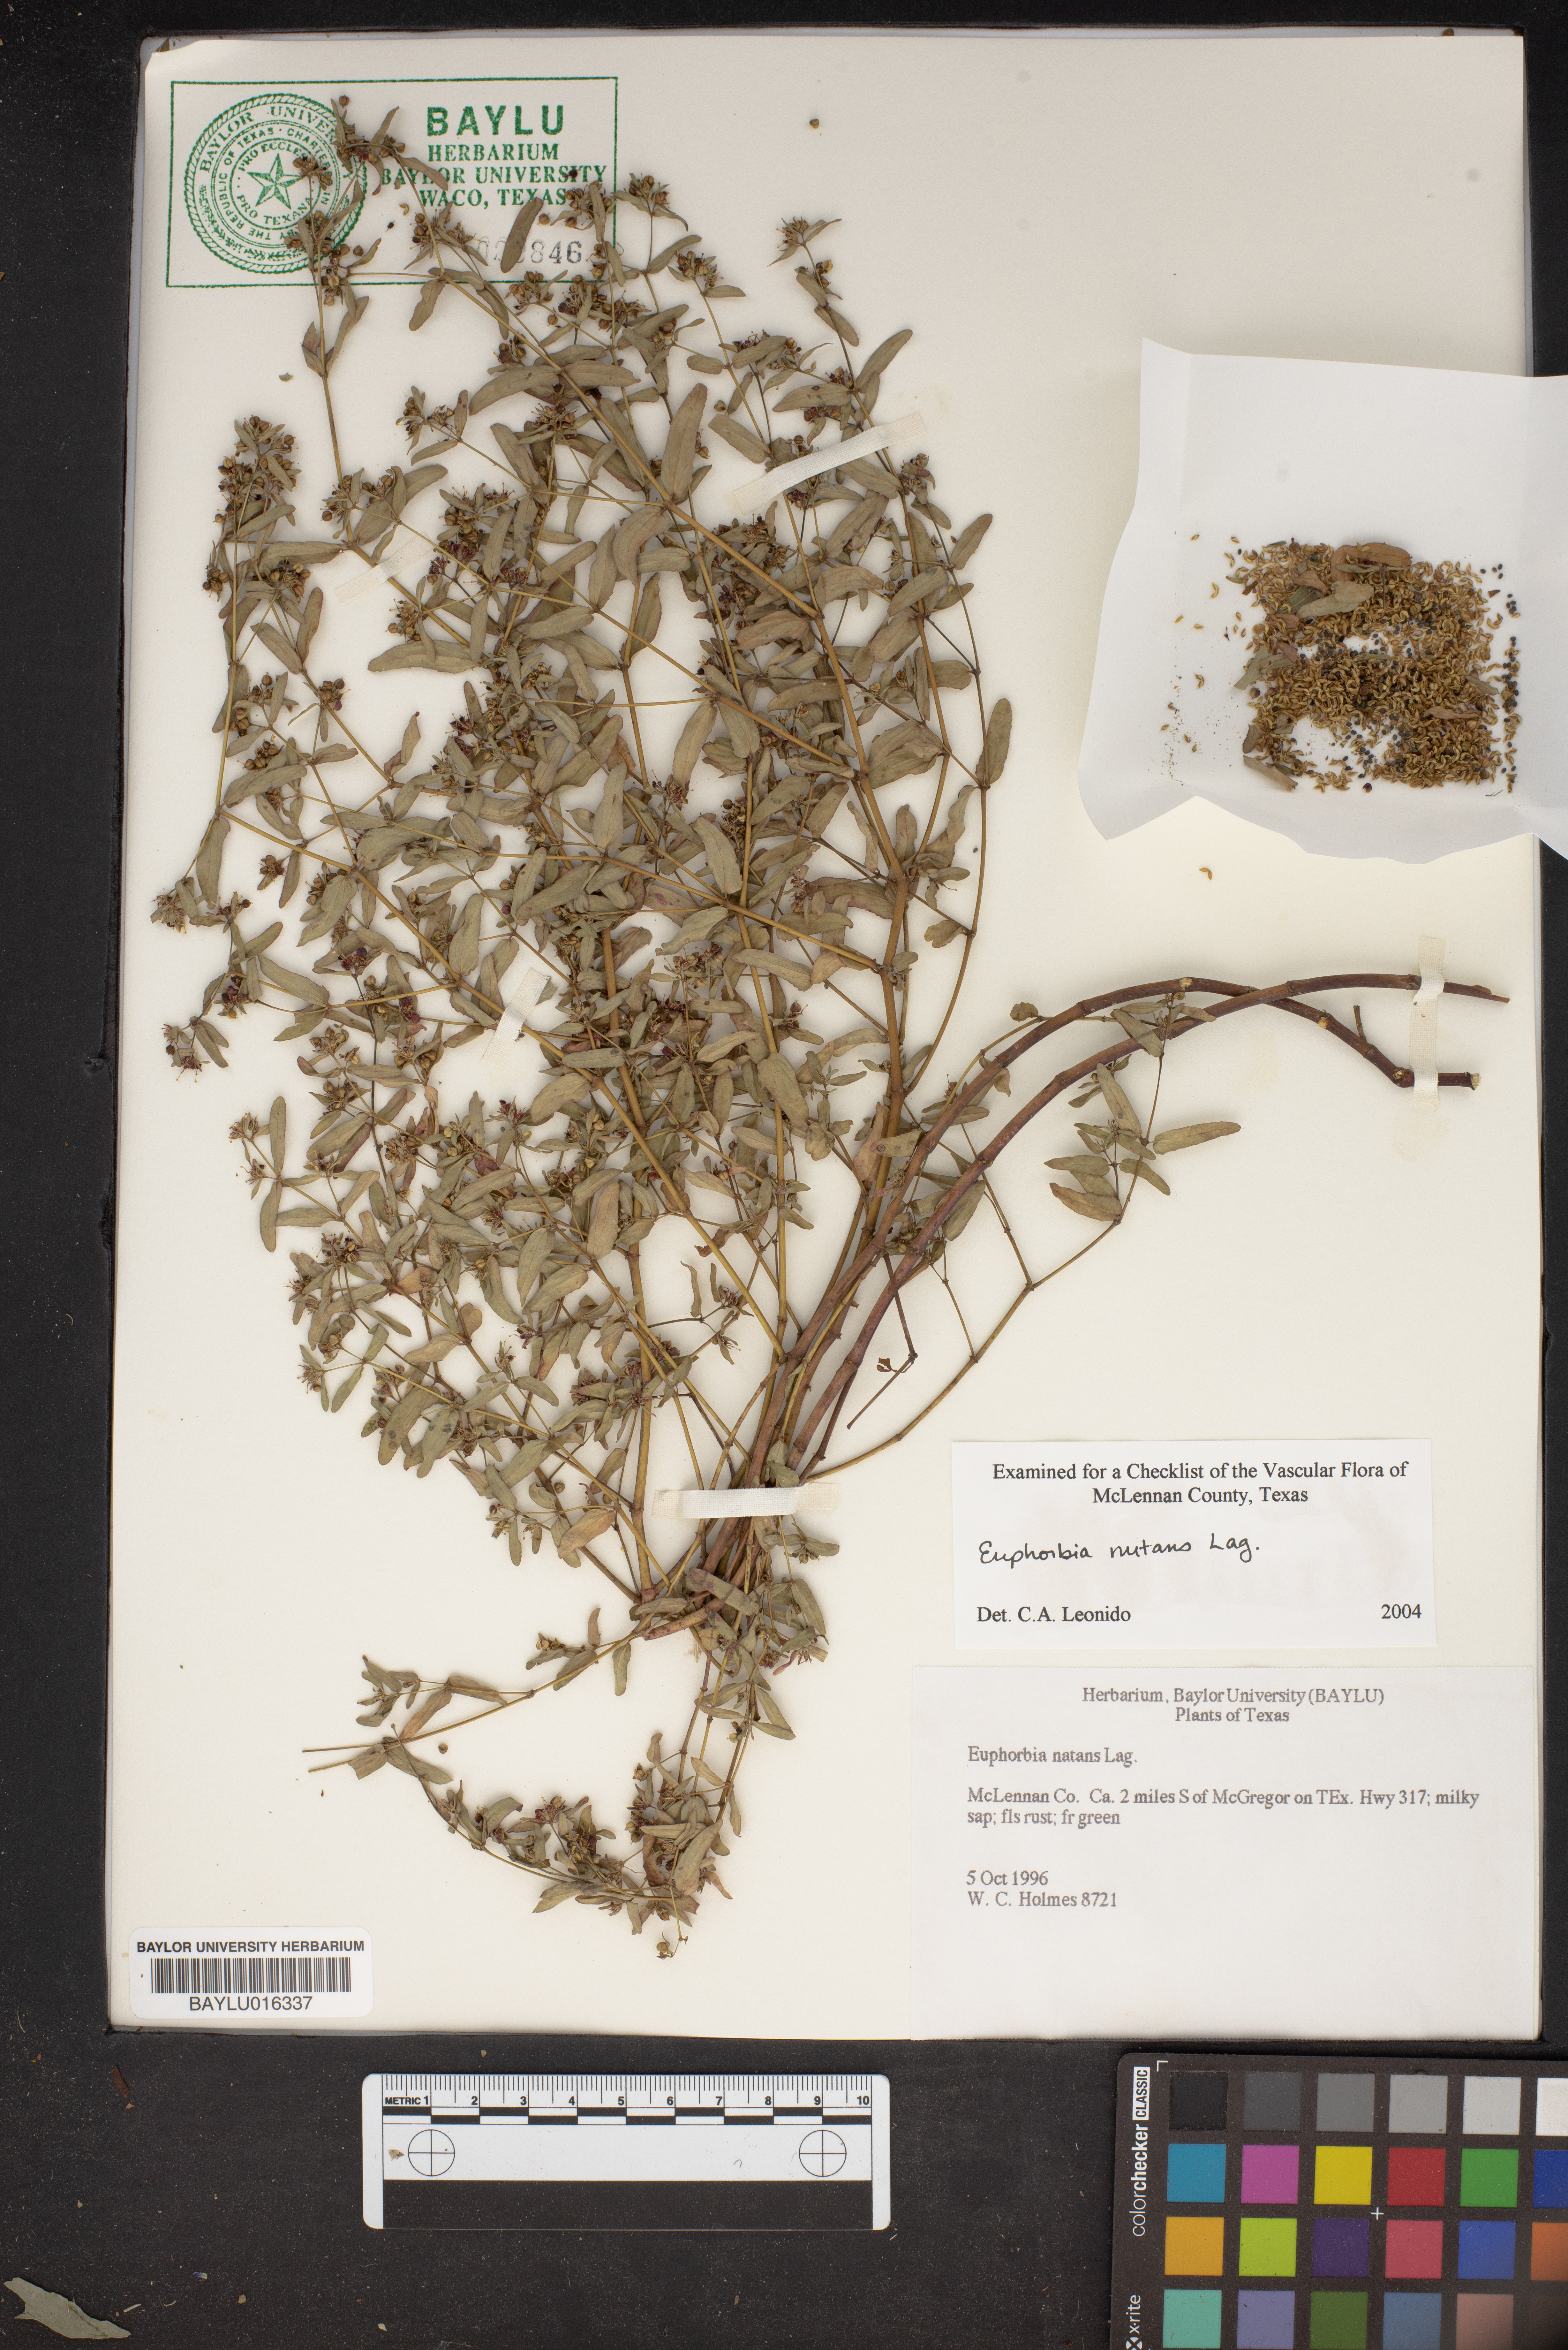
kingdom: Plantae
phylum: Tracheophyta
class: Magnoliopsida
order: Malpighiales
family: Euphorbiaceae
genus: Euphorbia
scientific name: Euphorbia nutans
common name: Eyebane
